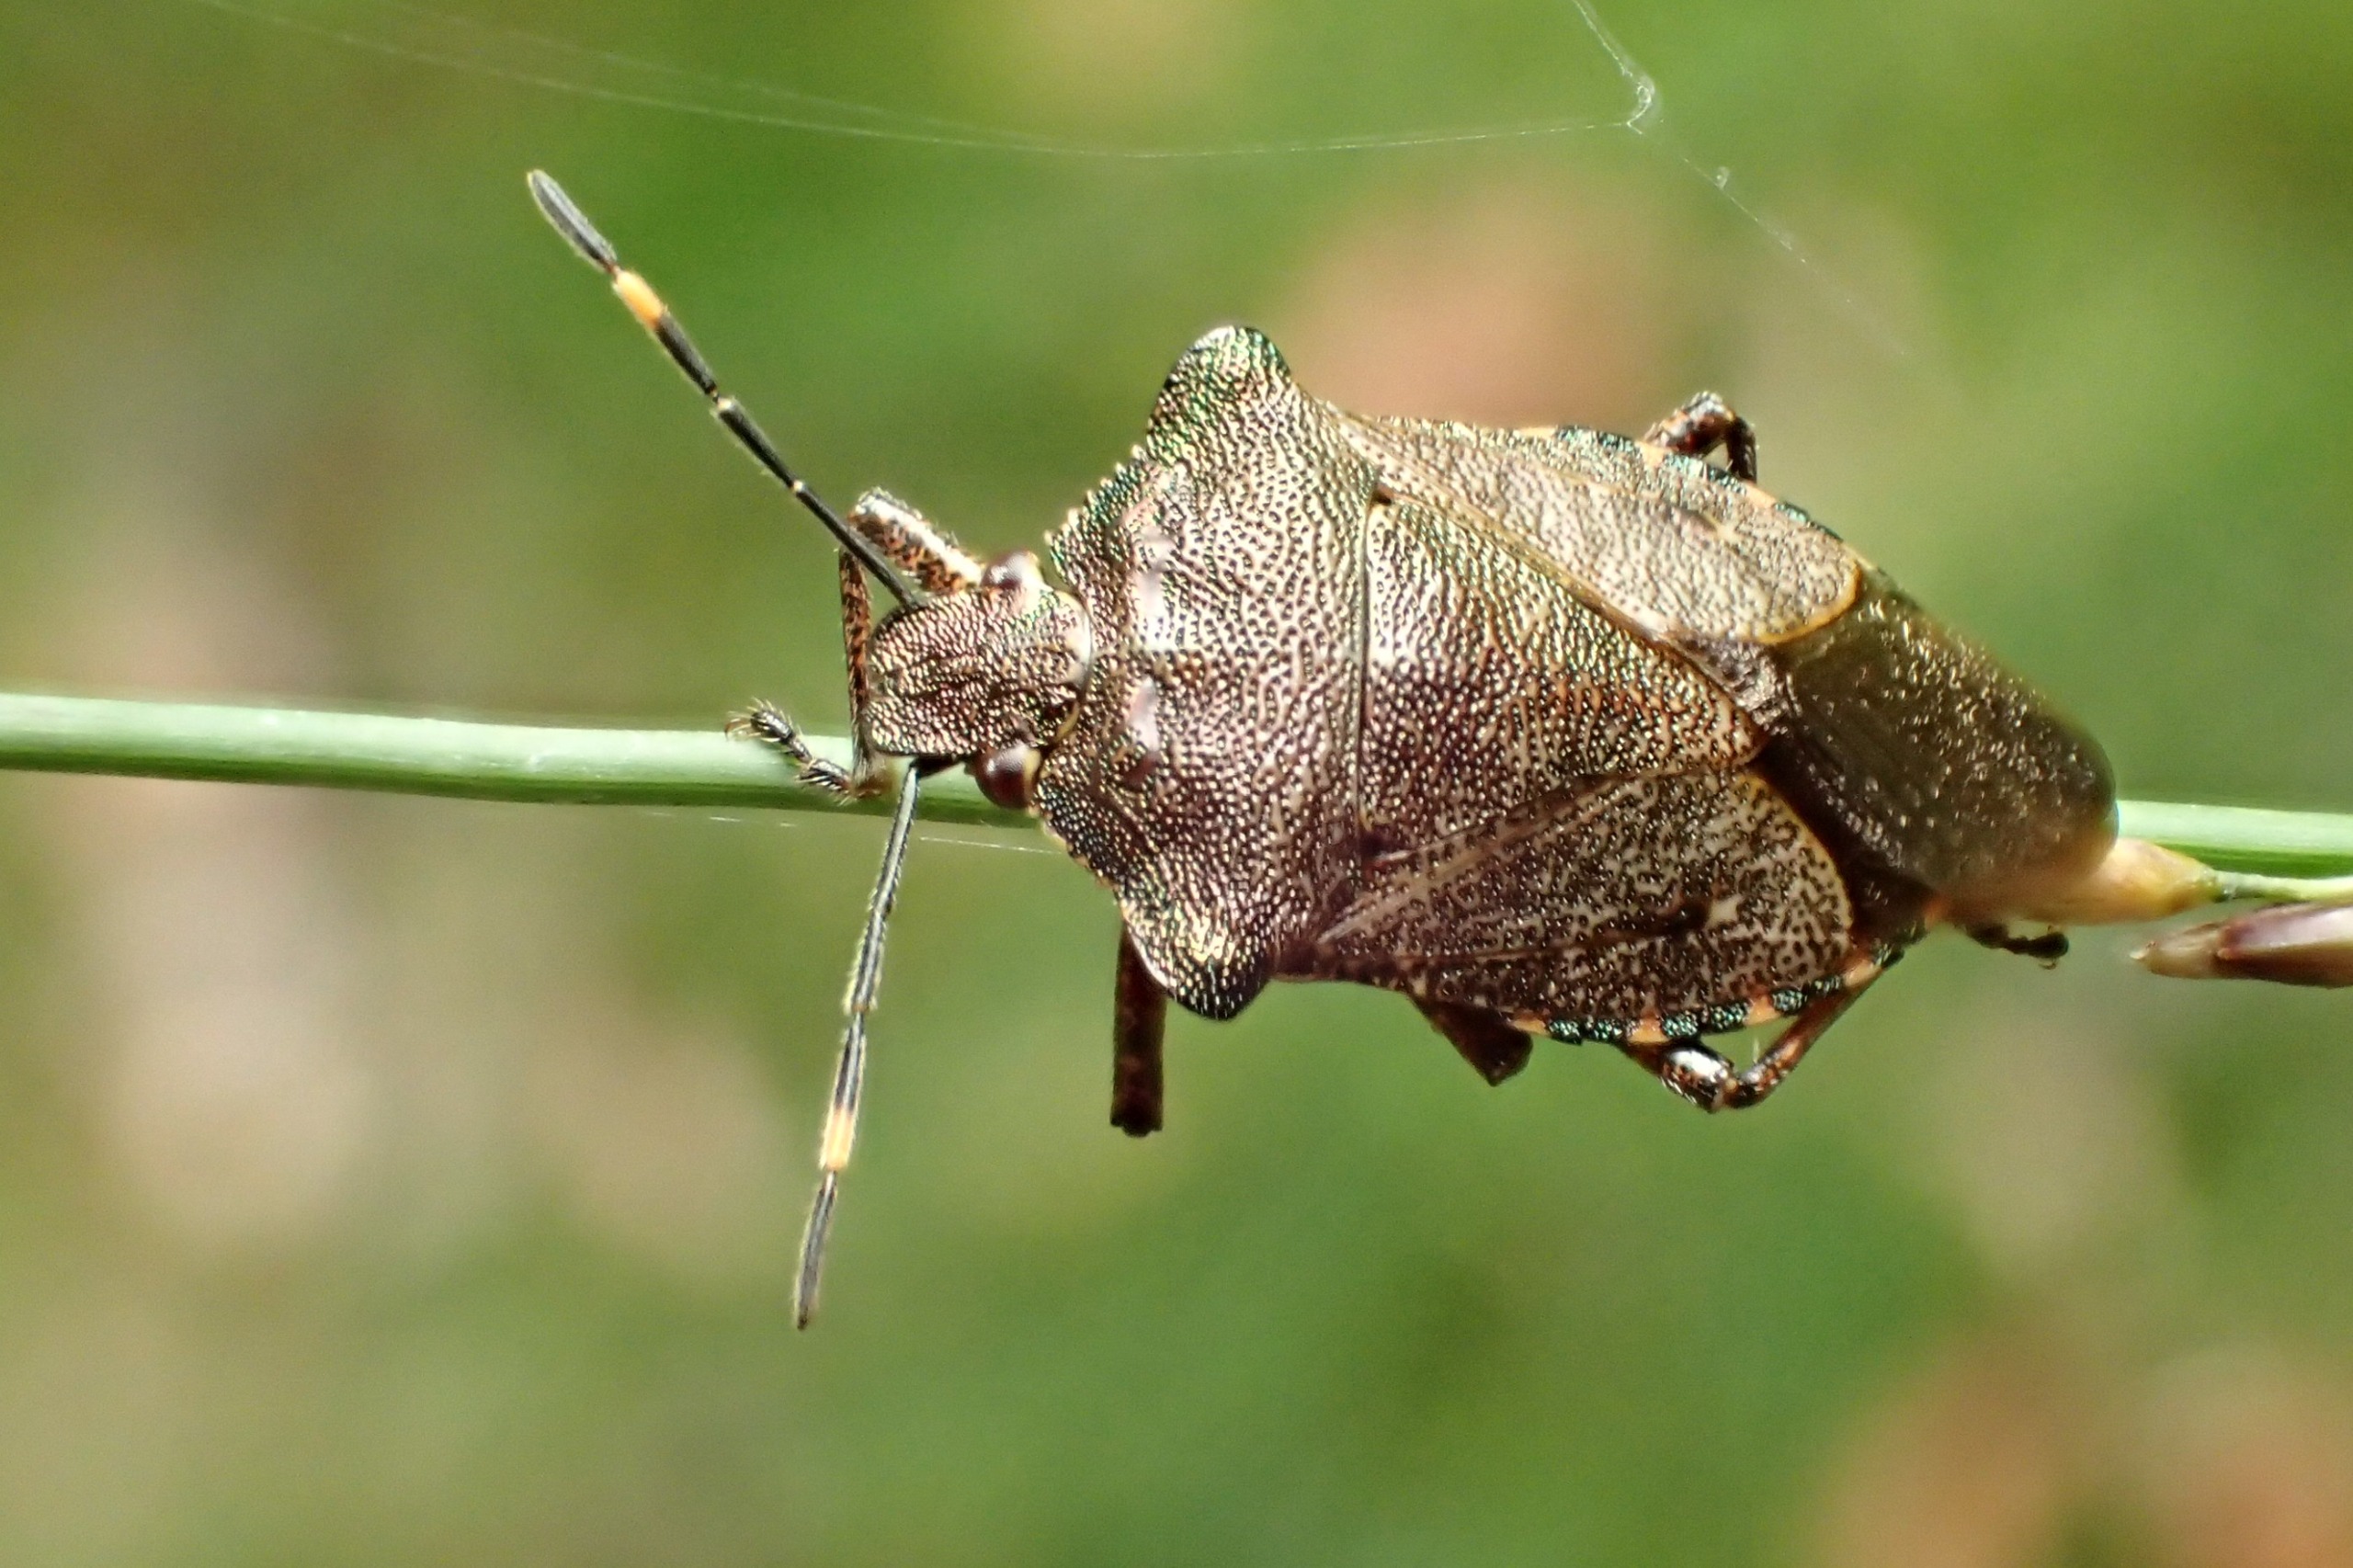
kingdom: Animalia
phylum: Arthropoda
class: Insecta
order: Hemiptera
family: Pentatomidae
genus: Troilus
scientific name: Troilus luridus
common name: Skovbredtæge
